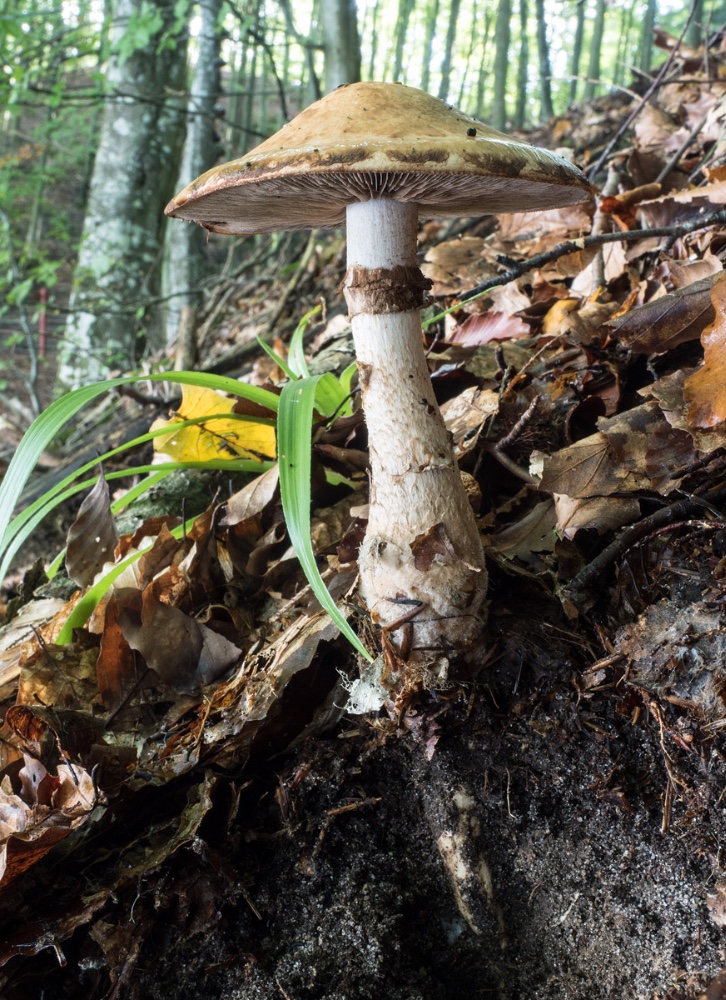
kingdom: Fungi
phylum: Basidiomycota
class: Agaricomycetes
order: Agaricales
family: Hymenogastraceae
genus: Hebeloma
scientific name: Hebeloma radicosum
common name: pælerods-tåreblad
